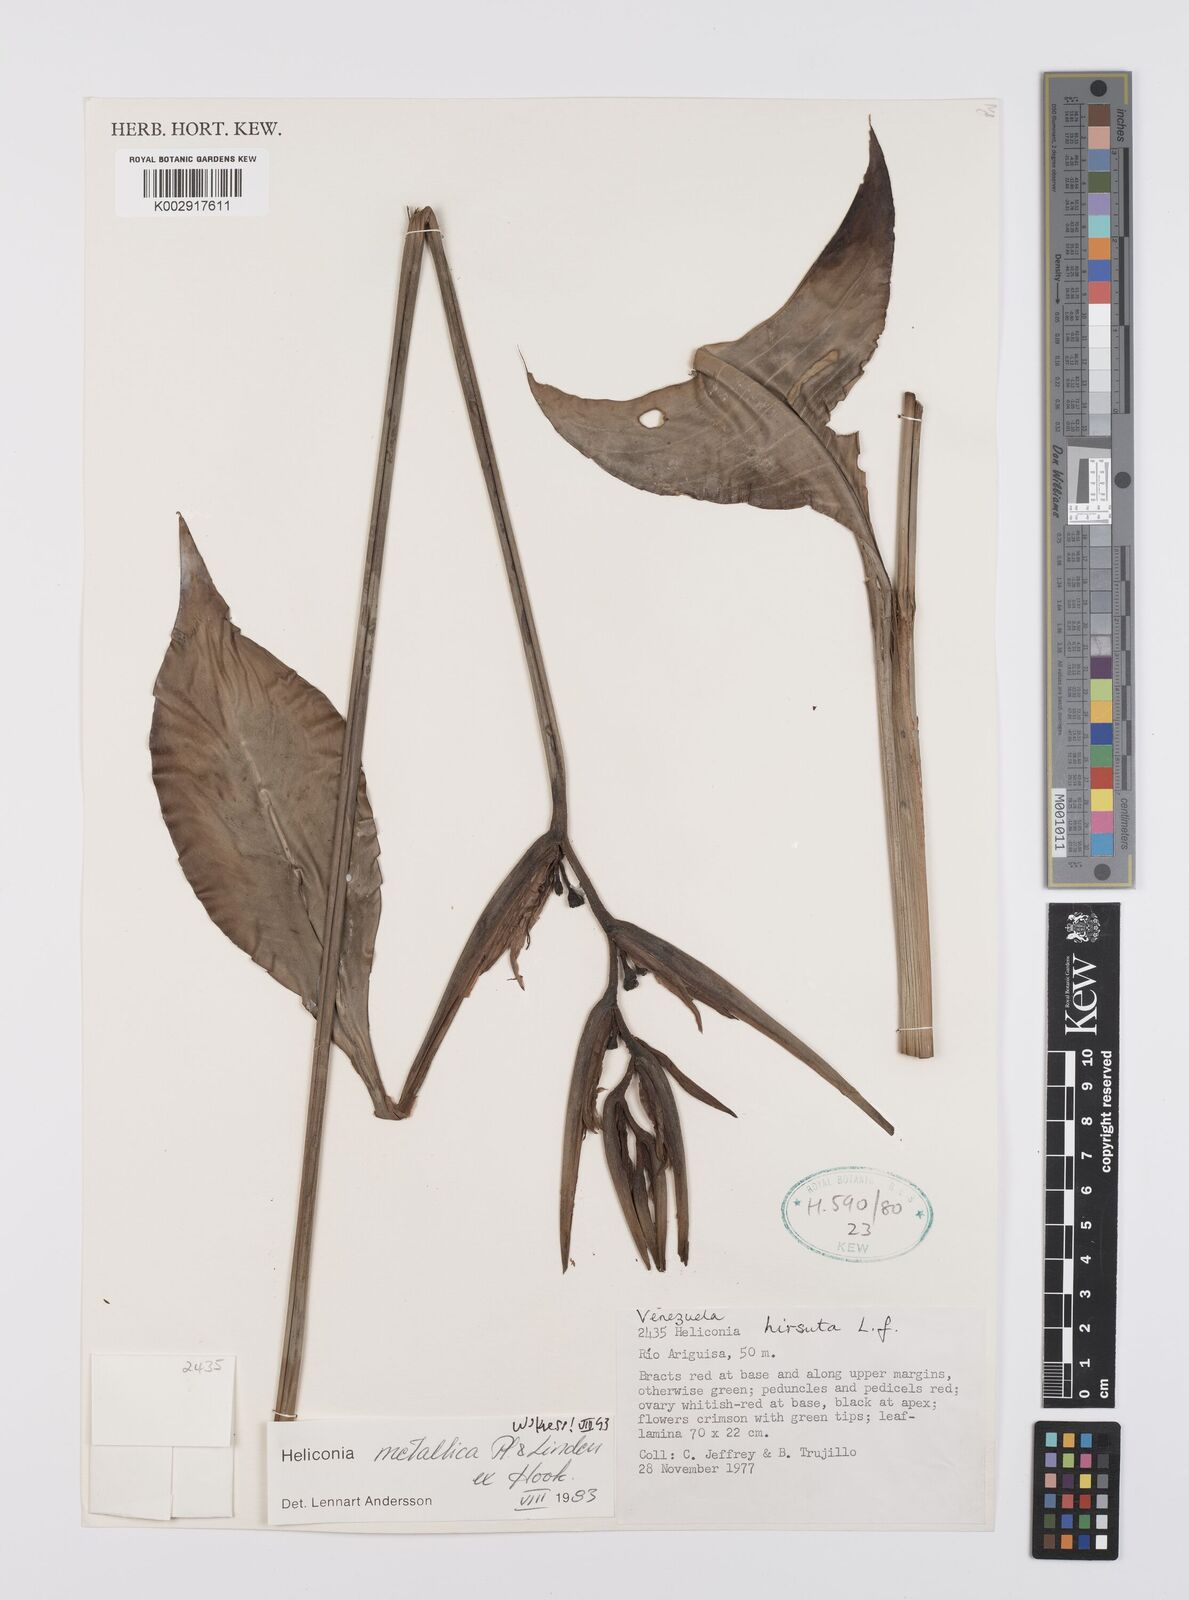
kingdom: Plantae
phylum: Tracheophyta
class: Liliopsida
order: Zingiberales
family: Heliconiaceae
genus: Heliconia
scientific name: Heliconia metallica
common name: Shining bird of paradise
